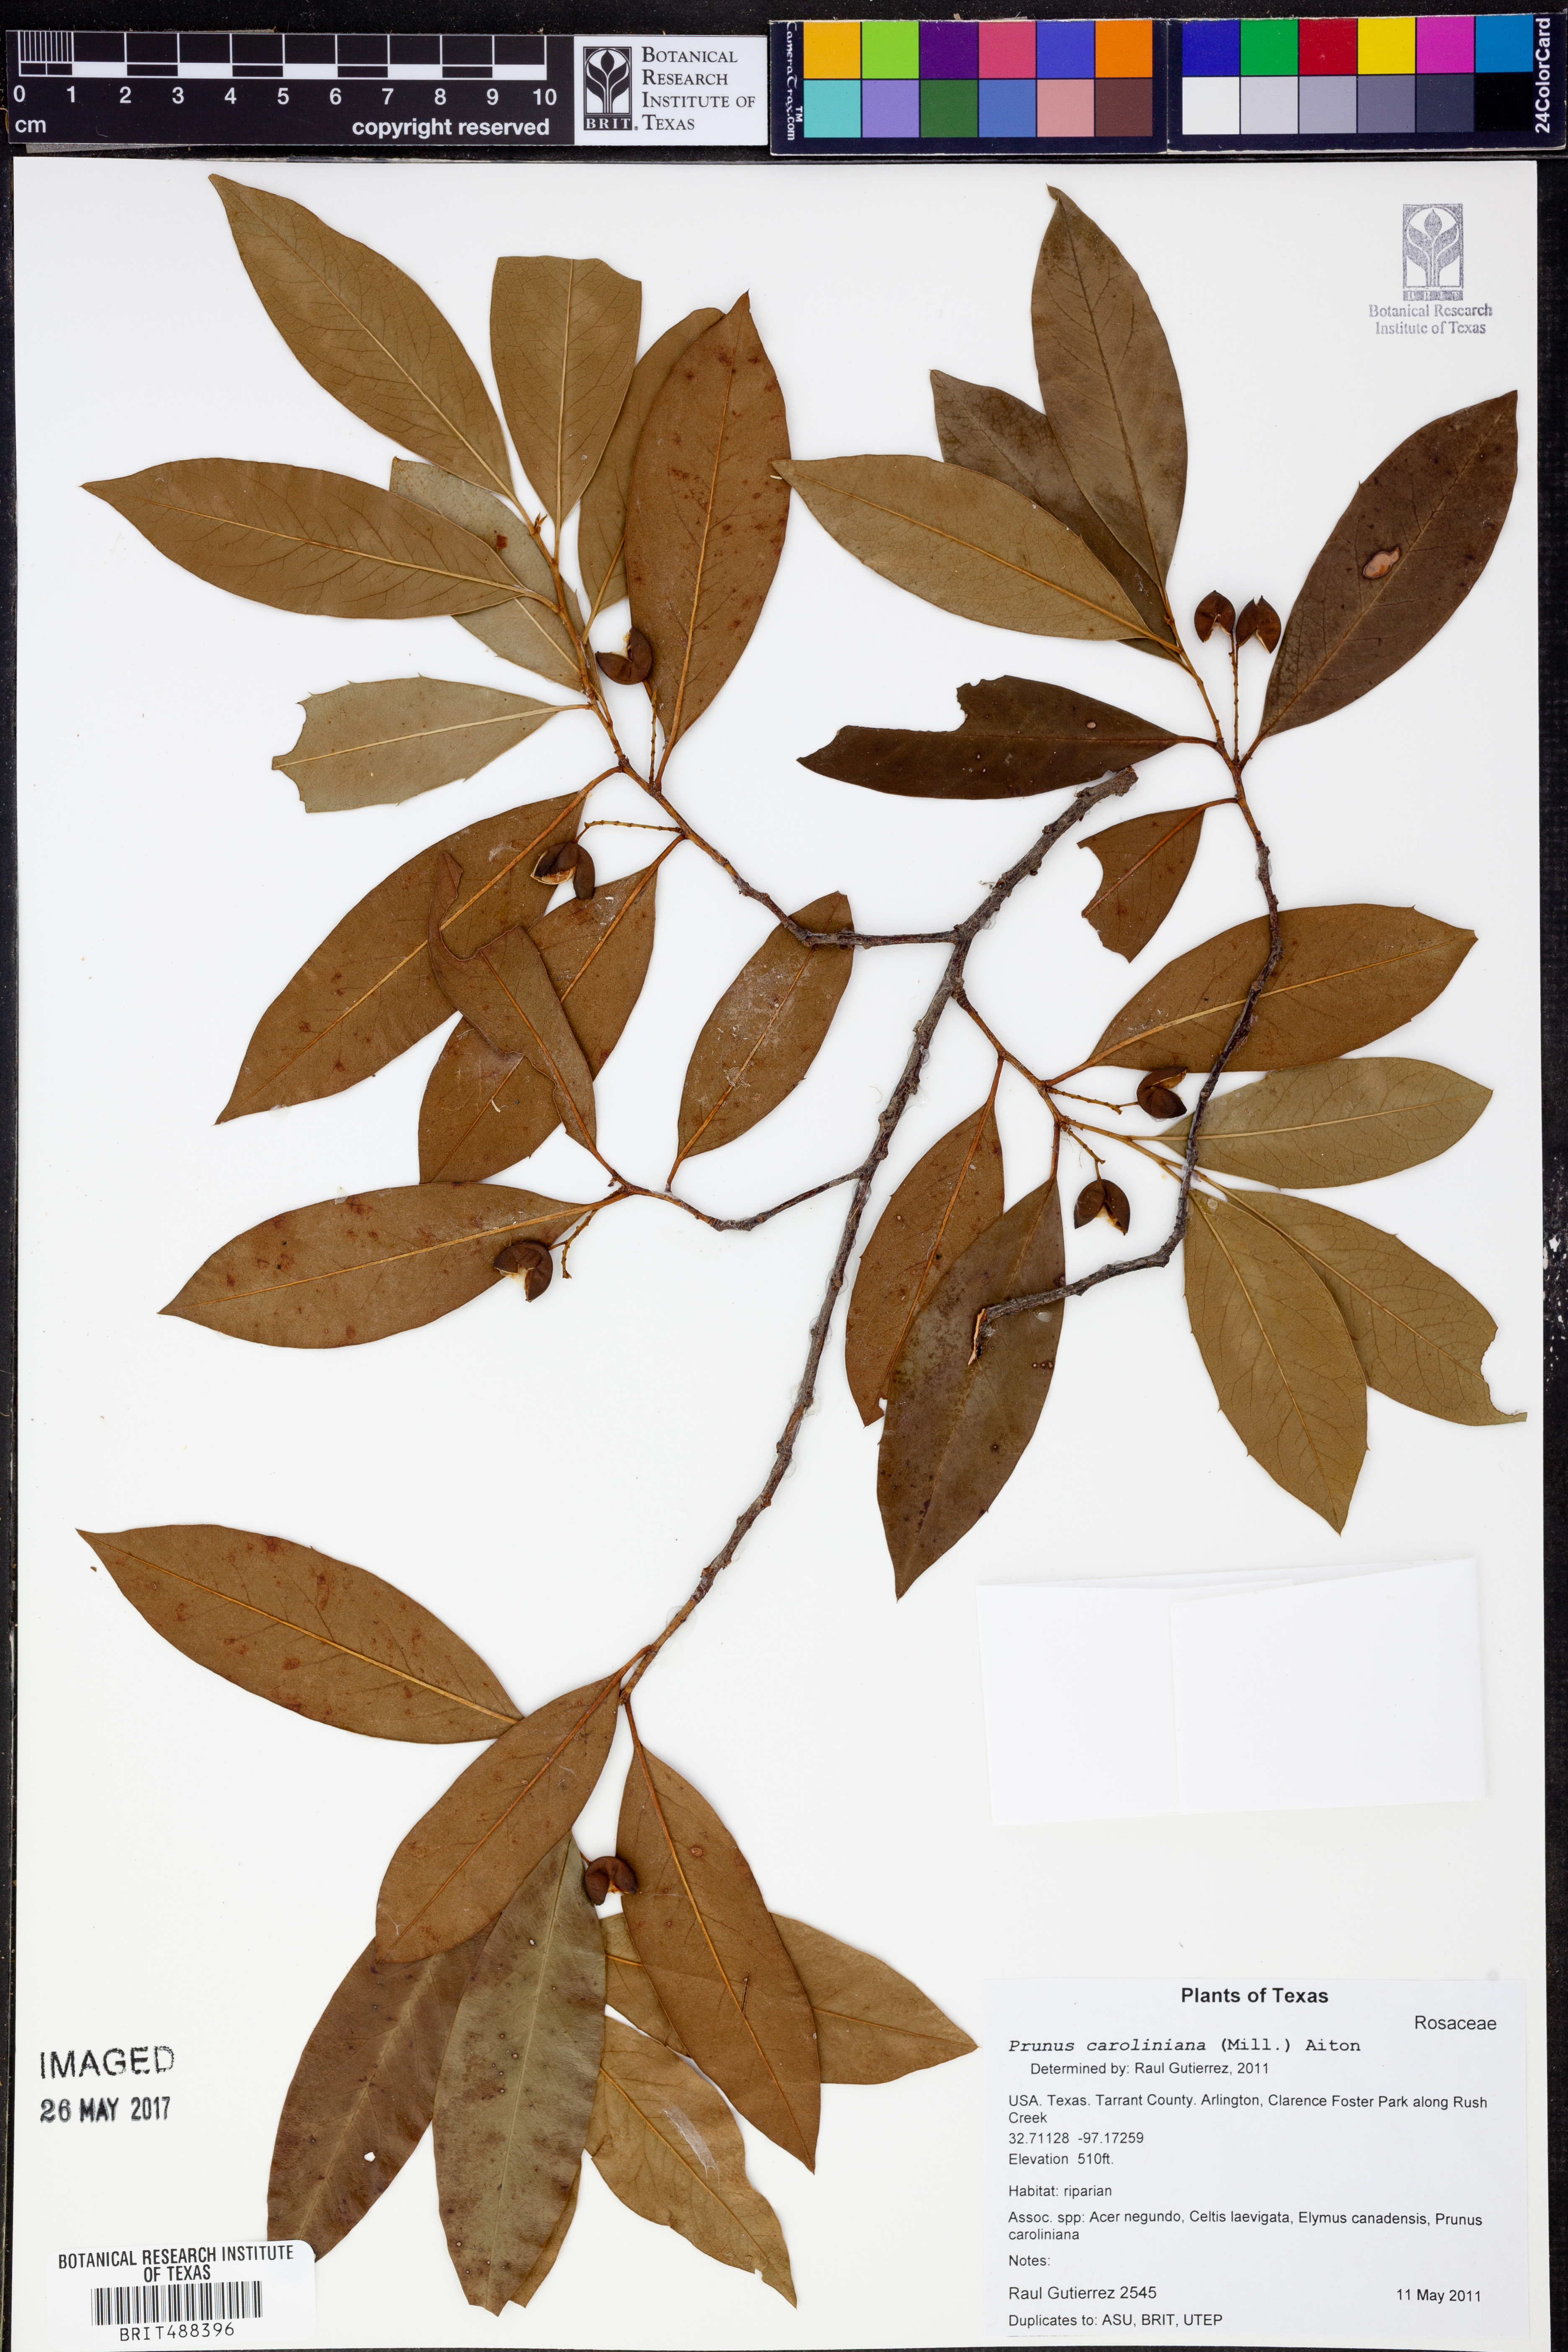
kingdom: Plantae
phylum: Tracheophyta
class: Magnoliopsida
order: Rosales
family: Rosaceae
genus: Prunus
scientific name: Prunus caroliniana
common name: Carolina laurel cherry
